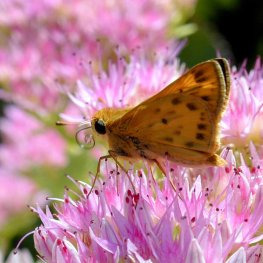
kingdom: Animalia
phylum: Arthropoda
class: Insecta
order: Lepidoptera
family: Hesperiidae
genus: Hylephila
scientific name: Hylephila phyleus
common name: Fiery Skipper
